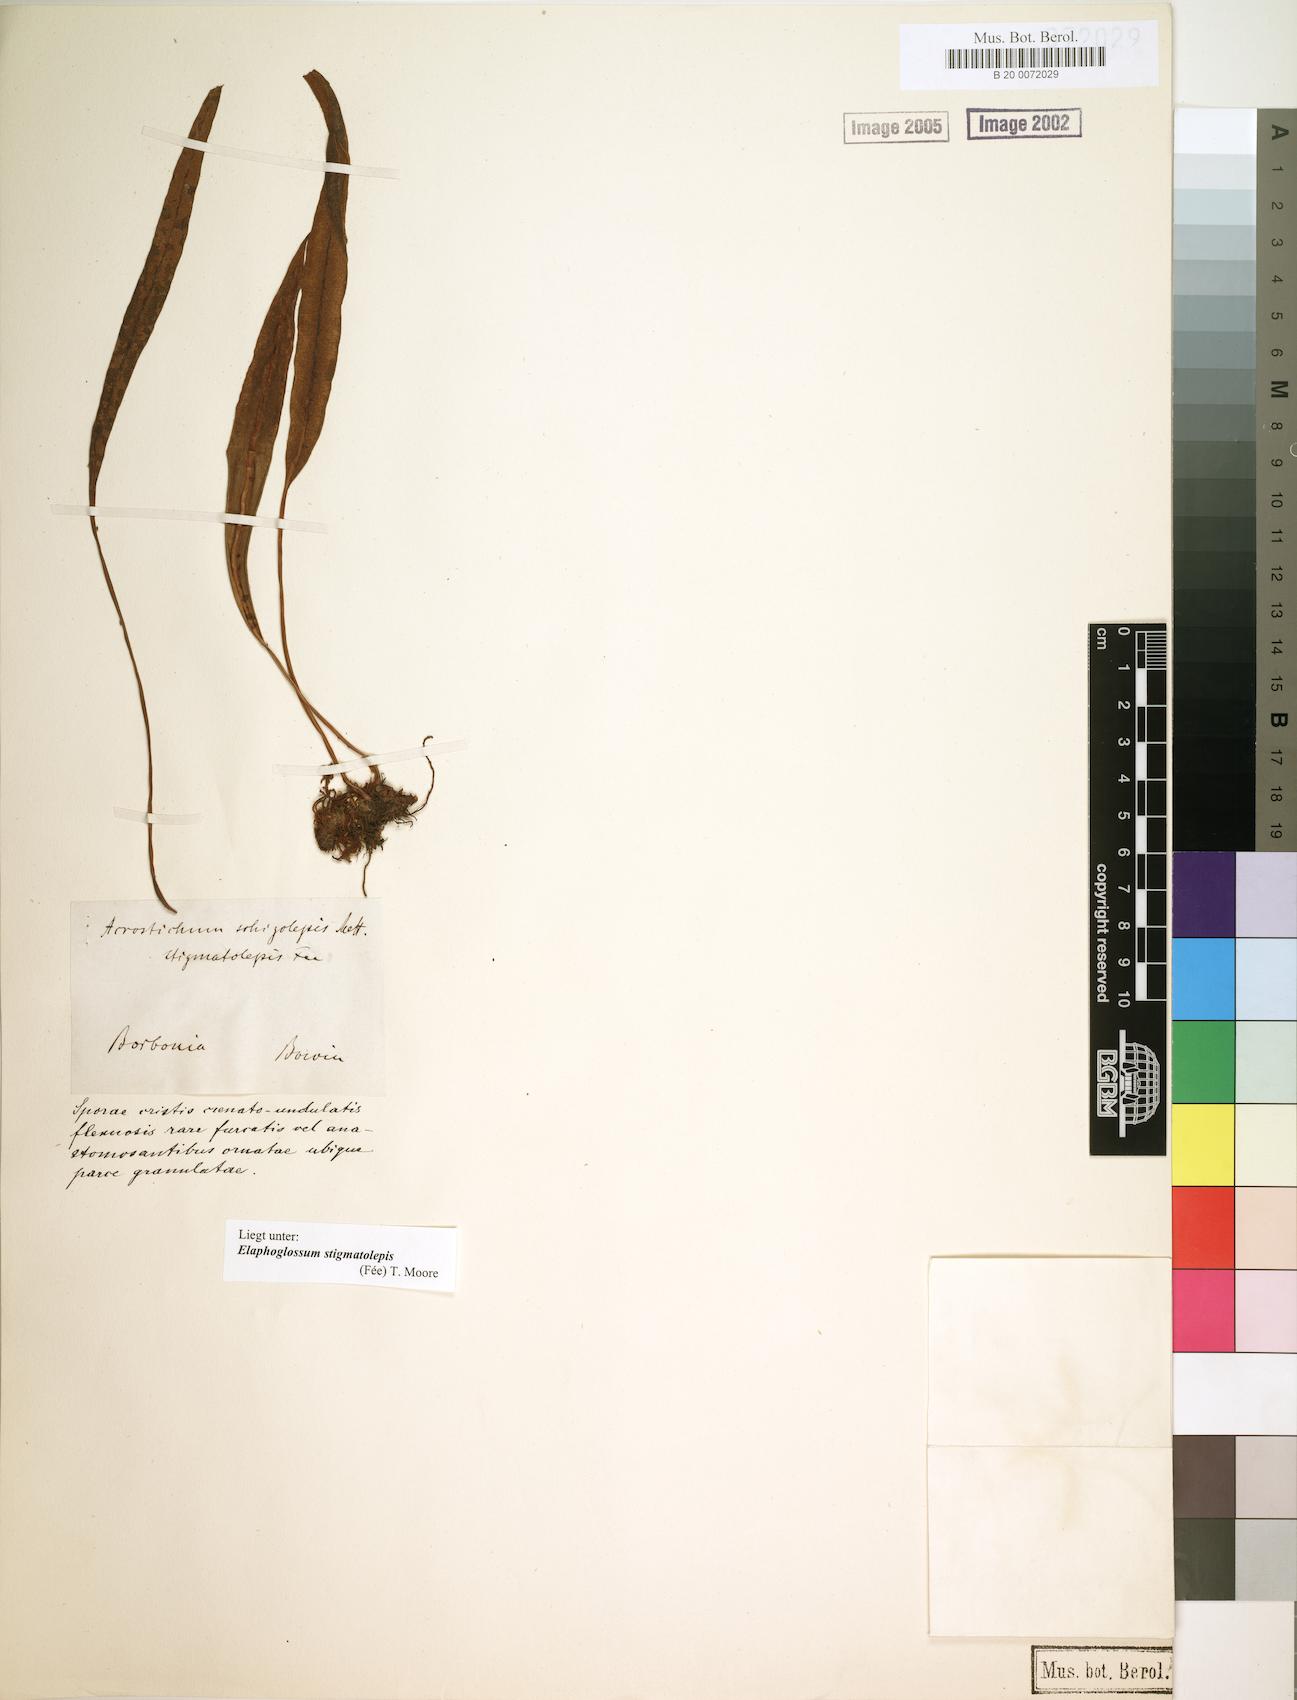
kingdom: Plantae
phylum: Tracheophyta
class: Polypodiopsida
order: Polypodiales
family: Dryopteridaceae
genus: Elaphoglossum
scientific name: Elaphoglossum stigmatolepis
